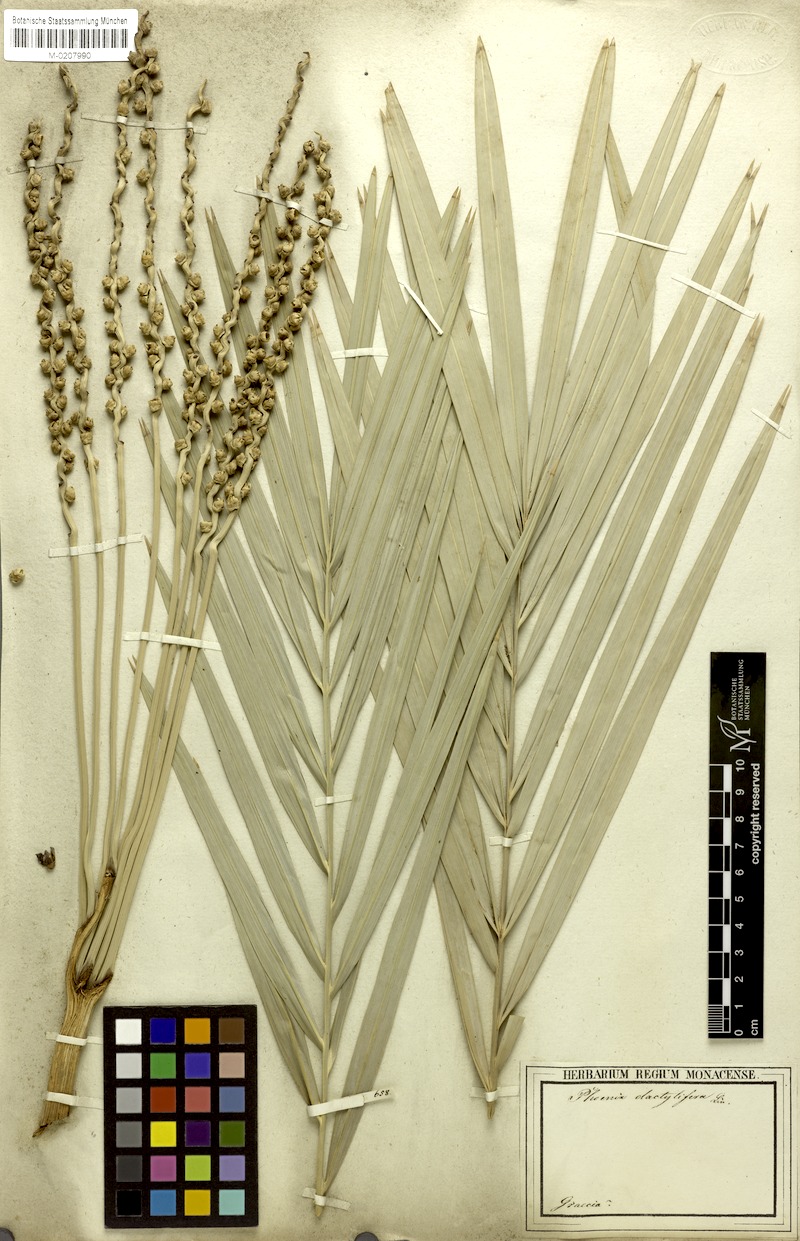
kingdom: Plantae
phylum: Tracheophyta
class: Liliopsida
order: Arecales
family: Arecaceae
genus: Phoenix
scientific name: Phoenix dactylifera
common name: Date palm
